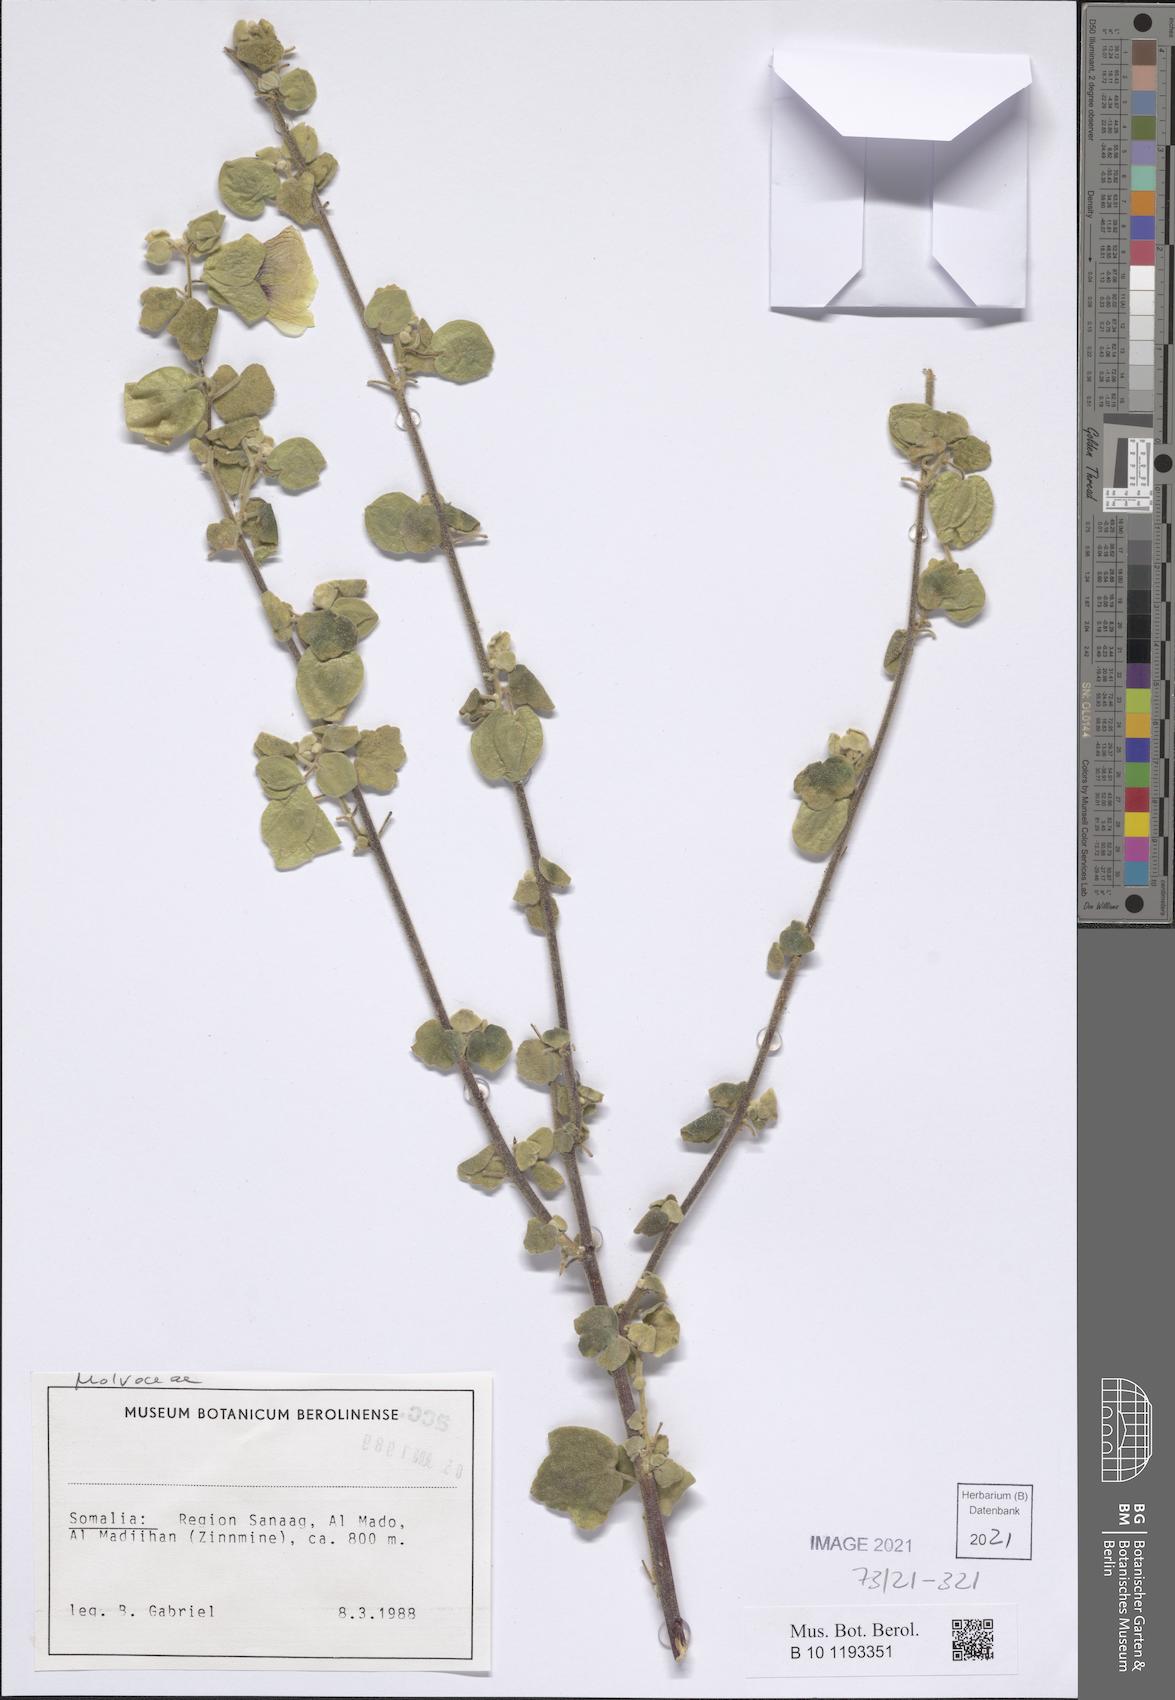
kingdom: Plantae
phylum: Tracheophyta
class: Magnoliopsida
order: Malvales
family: Malvaceae
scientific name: Malvaceae
